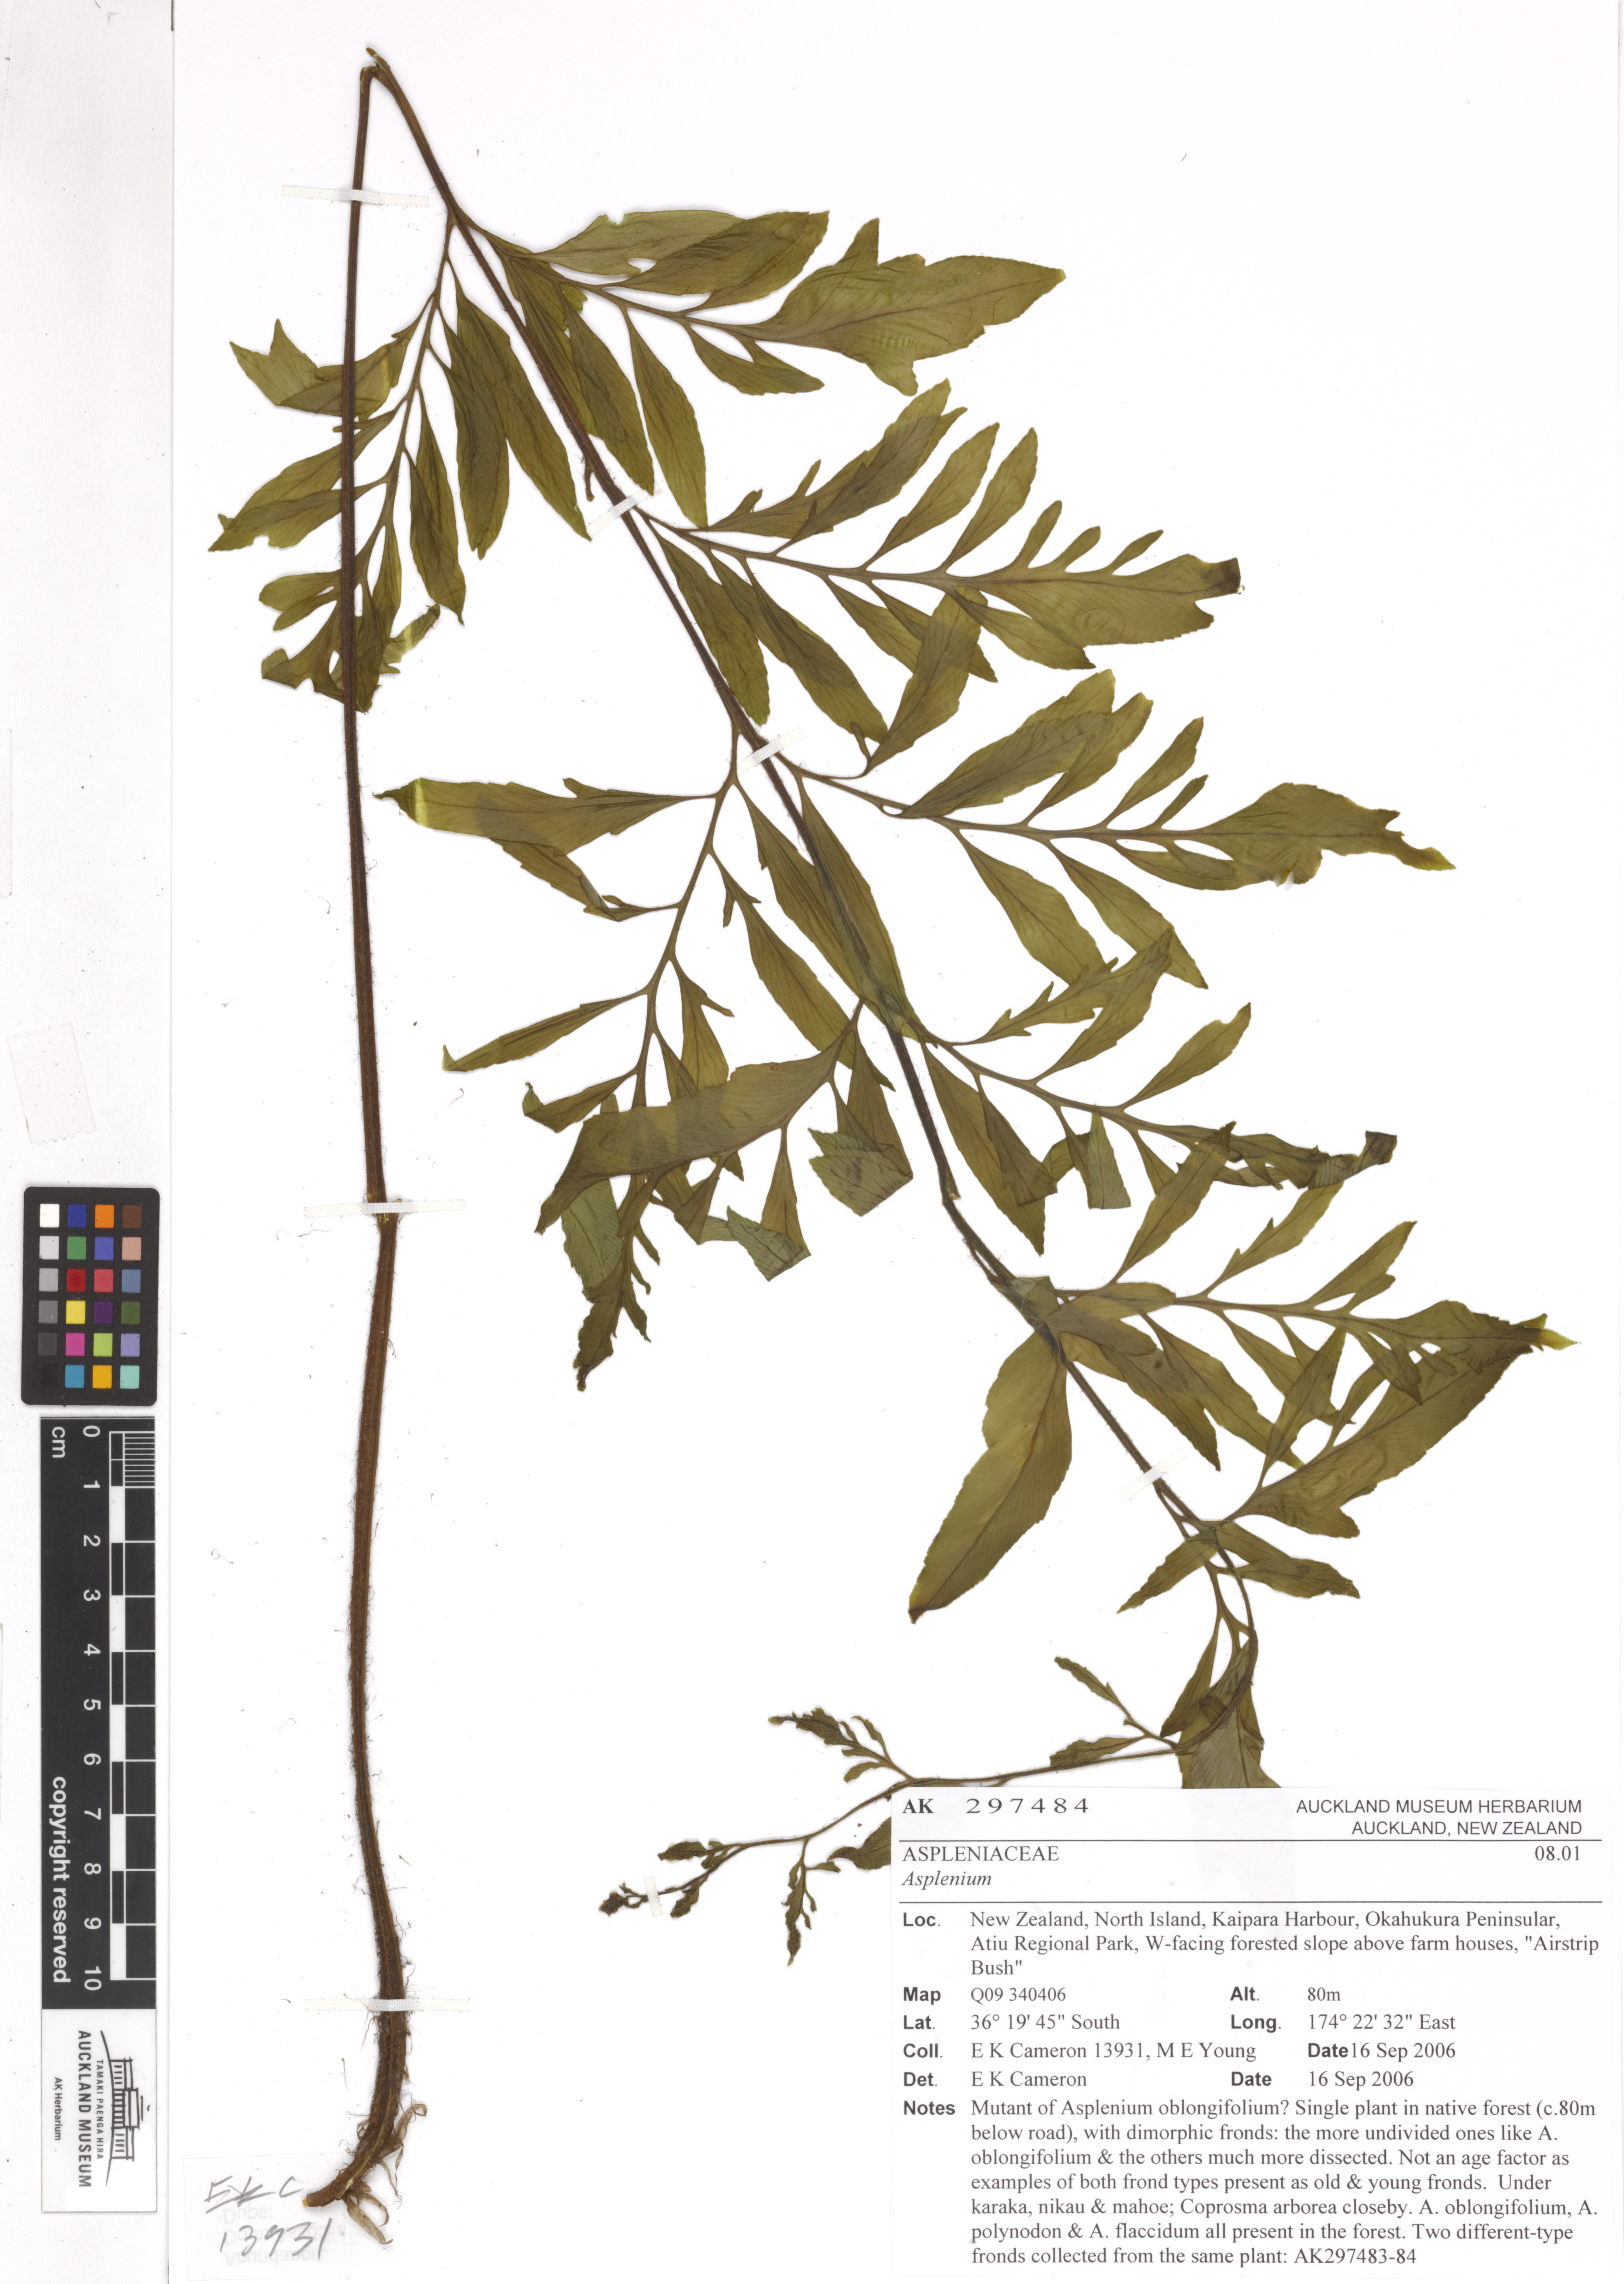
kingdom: Plantae
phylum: Tracheophyta
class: Polypodiopsida
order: Polypodiales
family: Aspleniaceae
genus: Asplenium
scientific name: Asplenium oblongifolium
